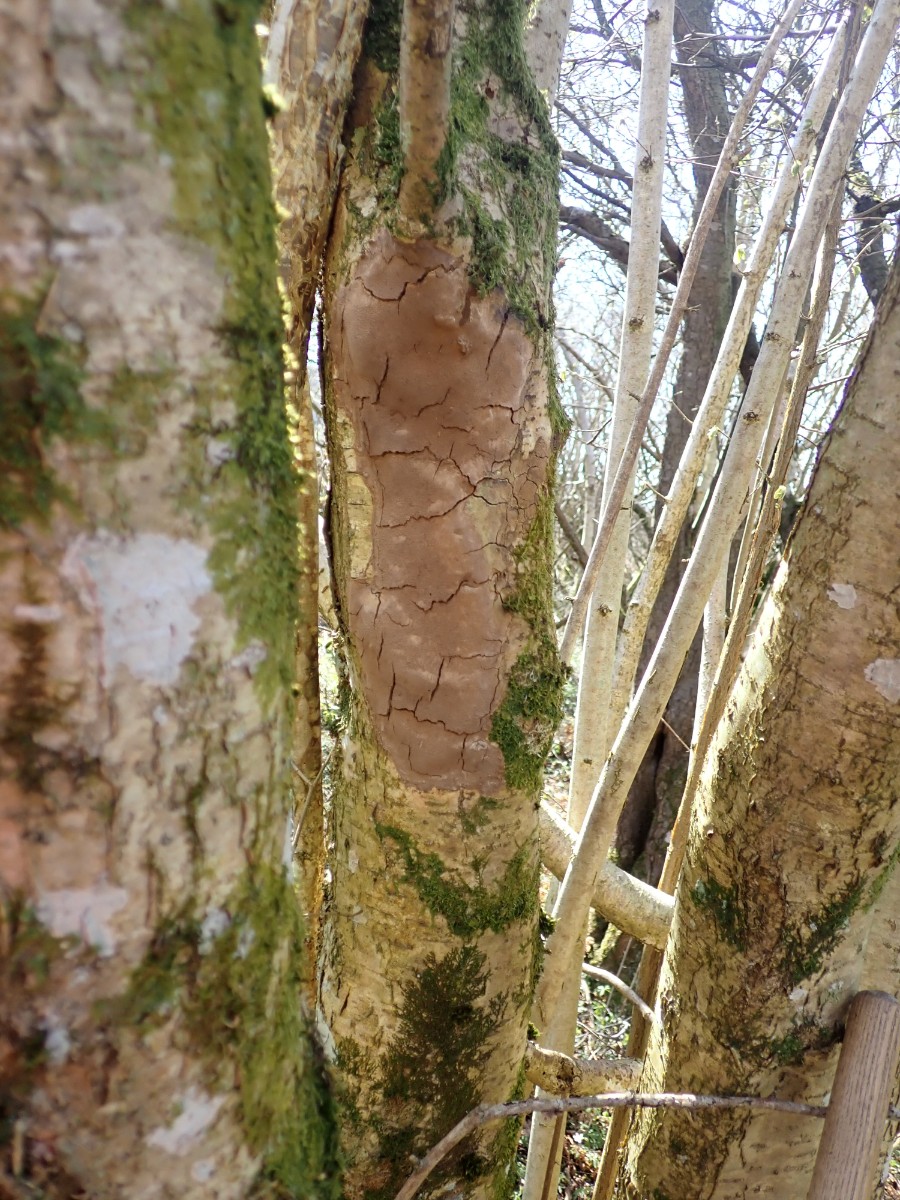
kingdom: Fungi
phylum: Basidiomycota
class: Agaricomycetes
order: Hymenochaetales
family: Hymenochaetaceae
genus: Fomitiporia
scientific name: Fomitiporia punctata
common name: pude-ildporesvamp
